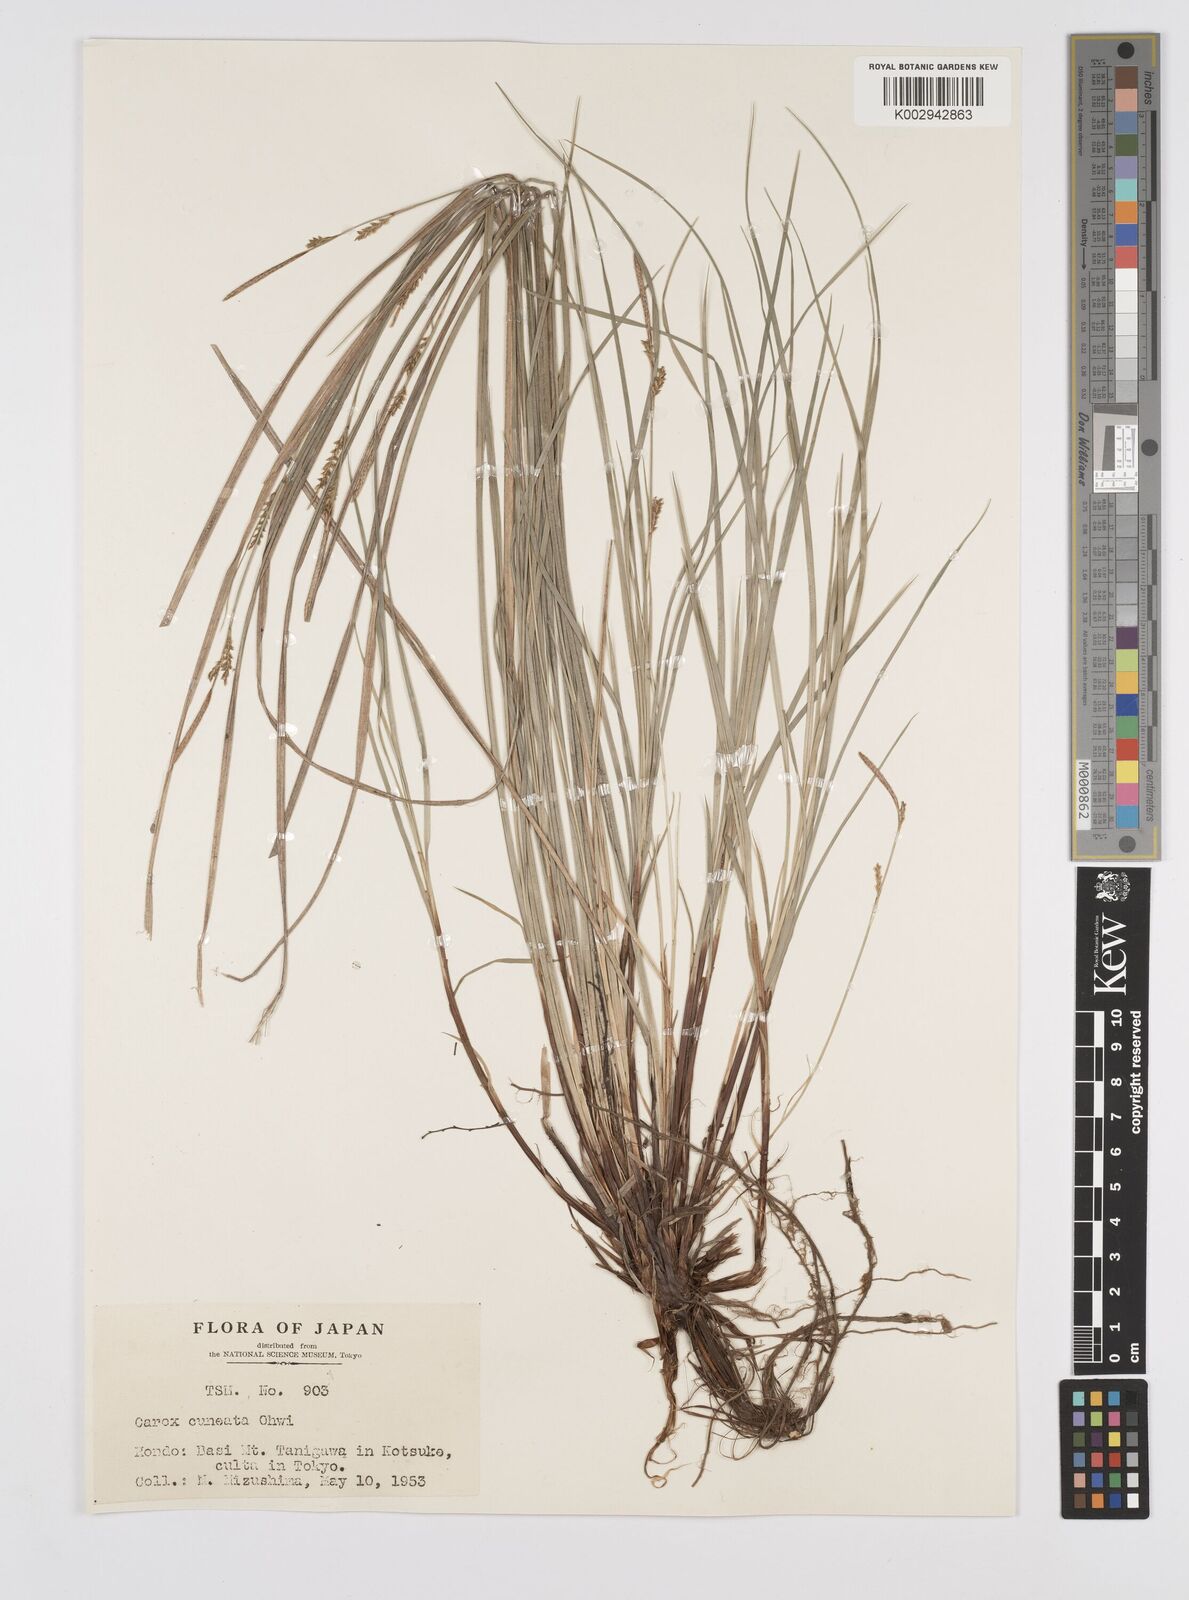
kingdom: Plantae
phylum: Tracheophyta
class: Liliopsida
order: Poales
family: Cyperaceae
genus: Carex
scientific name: Carex stenostachys
